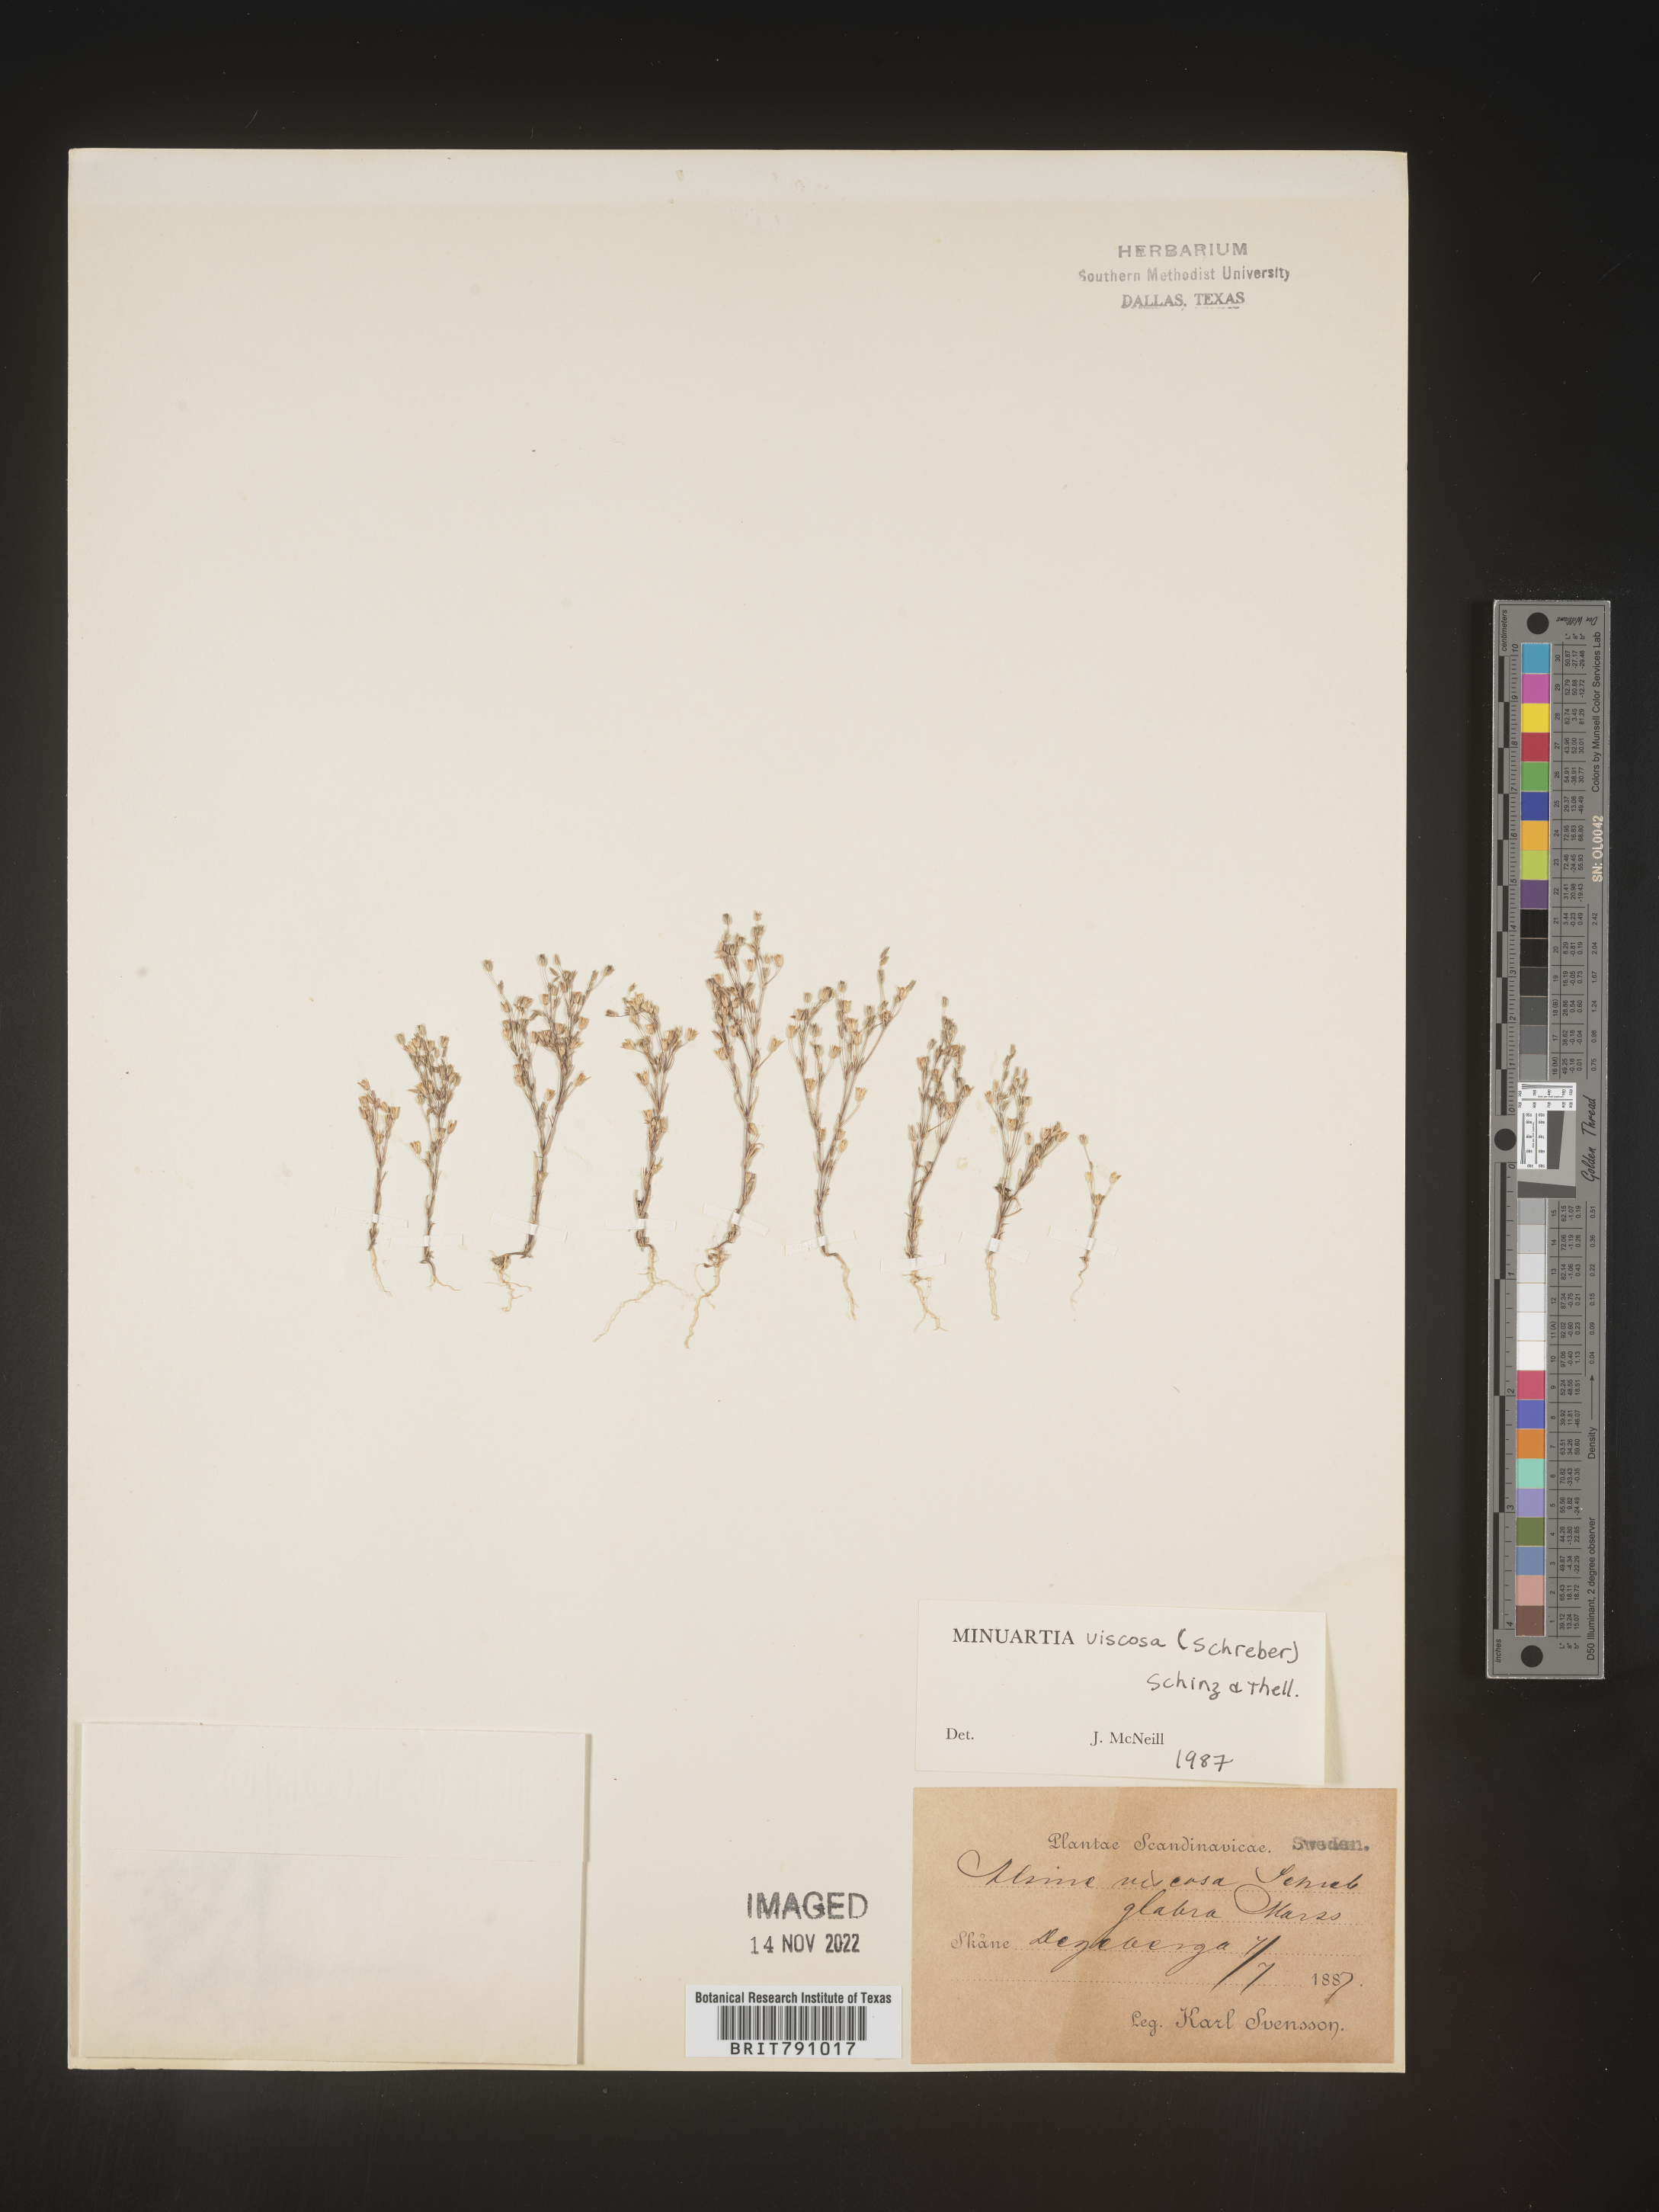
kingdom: Plantae
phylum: Tracheophyta
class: Magnoliopsida
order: Caryophyllales
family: Caryophyllaceae
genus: Minuartia
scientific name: Minuartia
